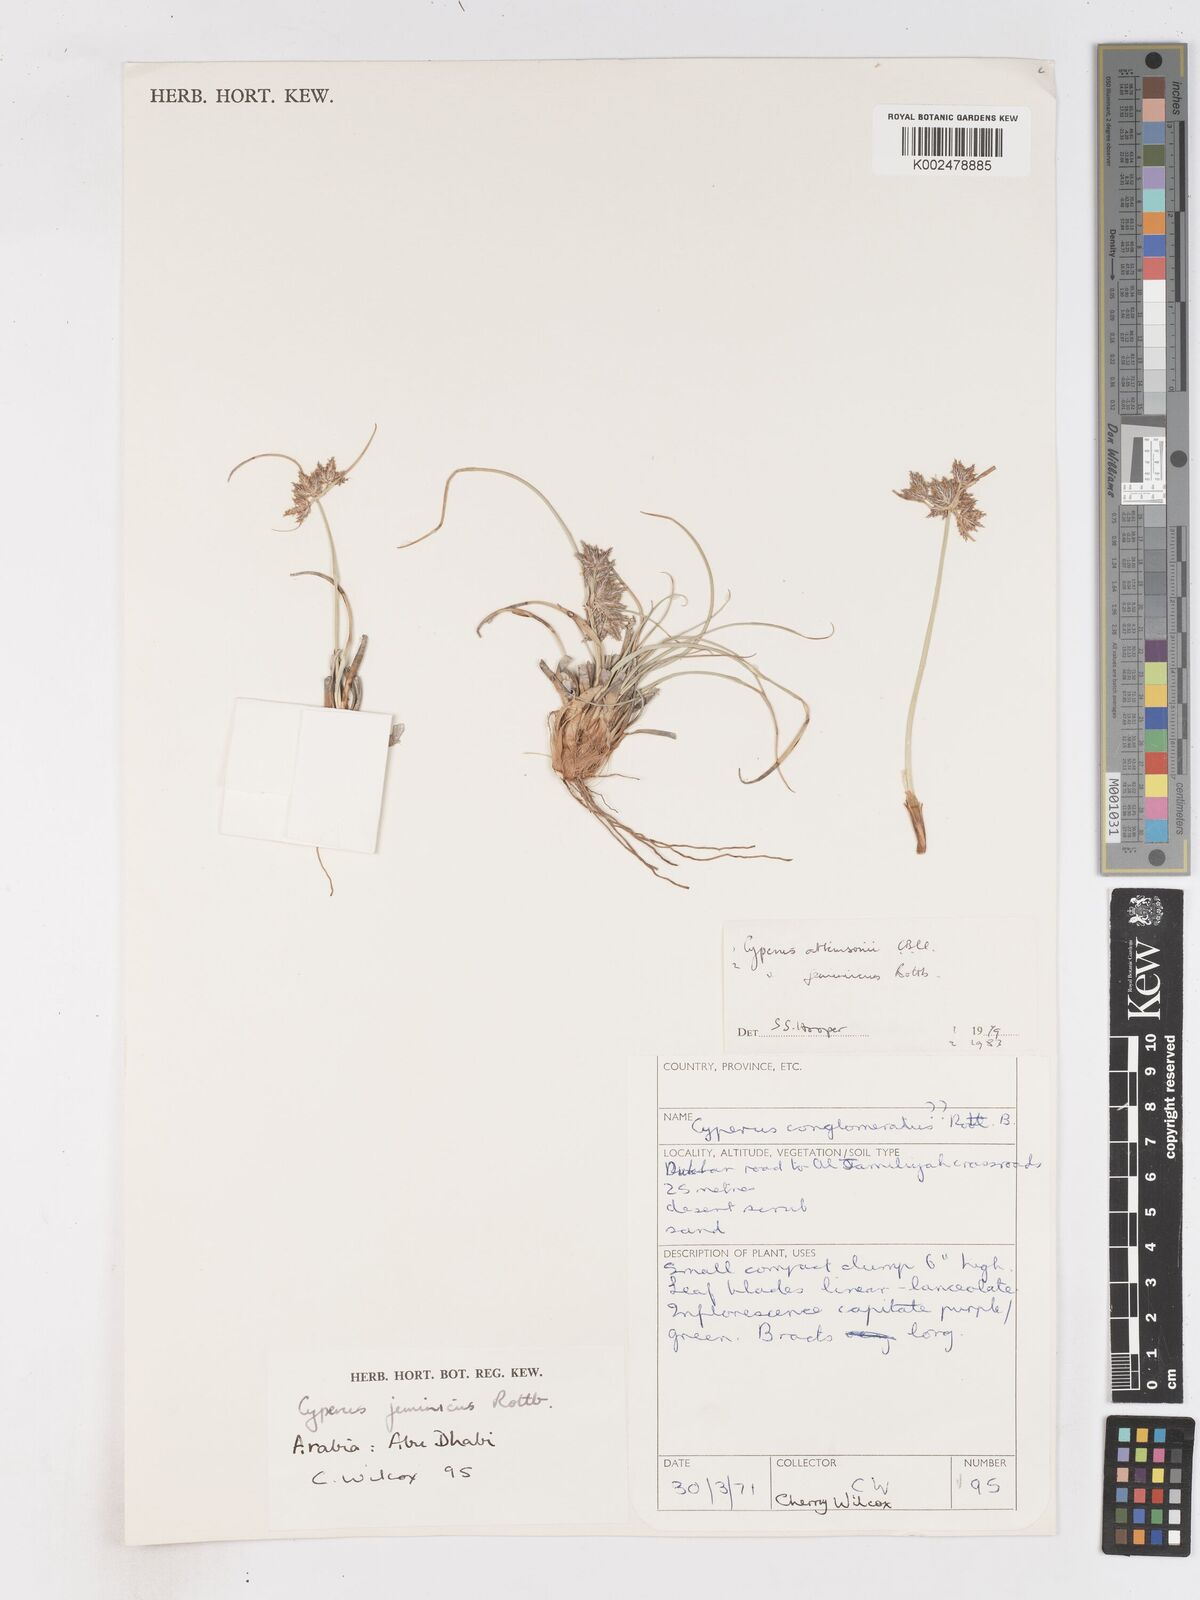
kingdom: Plantae
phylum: Tracheophyta
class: Liliopsida
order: Poales
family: Cyperaceae
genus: Cyperus
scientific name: Cyperus jeminicus
